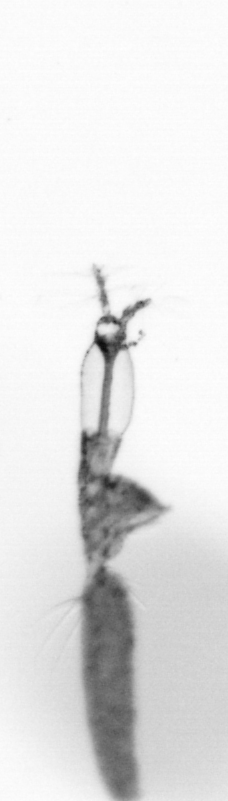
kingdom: Animalia
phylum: Arthropoda
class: Copepoda
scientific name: Copepoda
